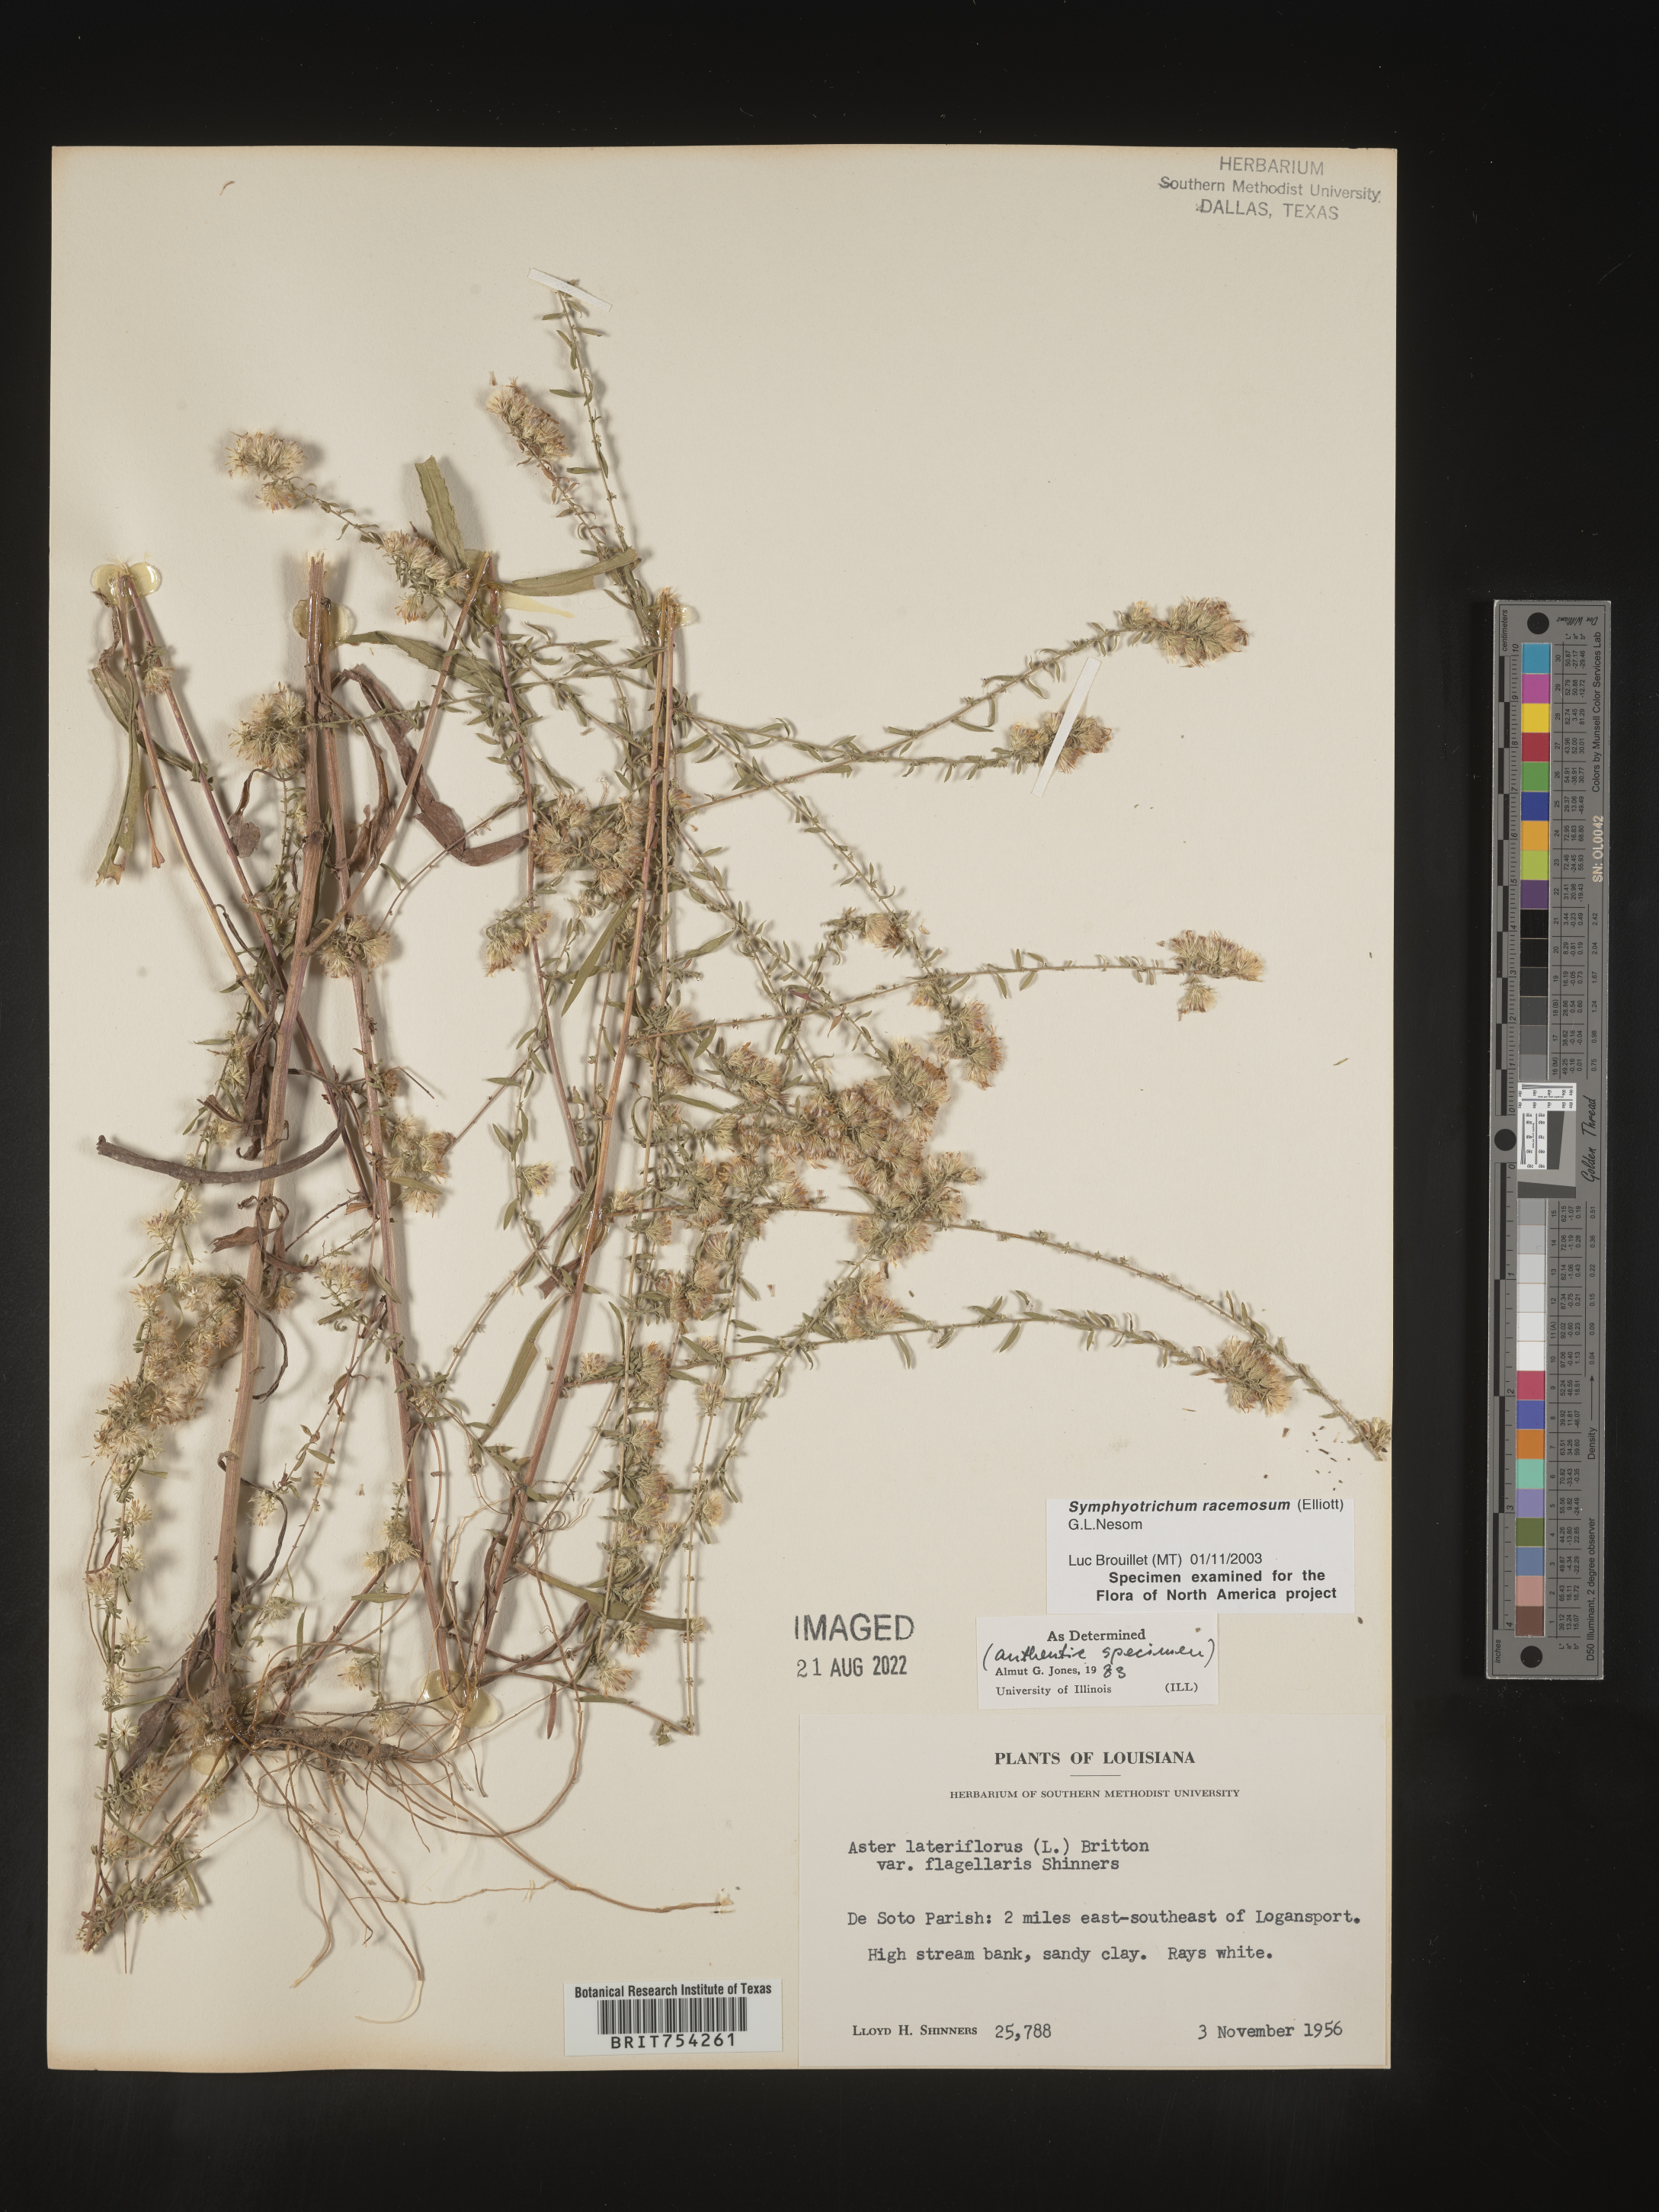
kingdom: Plantae
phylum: Tracheophyta
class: Magnoliopsida
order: Asterales
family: Asteraceae
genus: Symphyotrichum
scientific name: Symphyotrichum racemosum
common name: Small white aster
